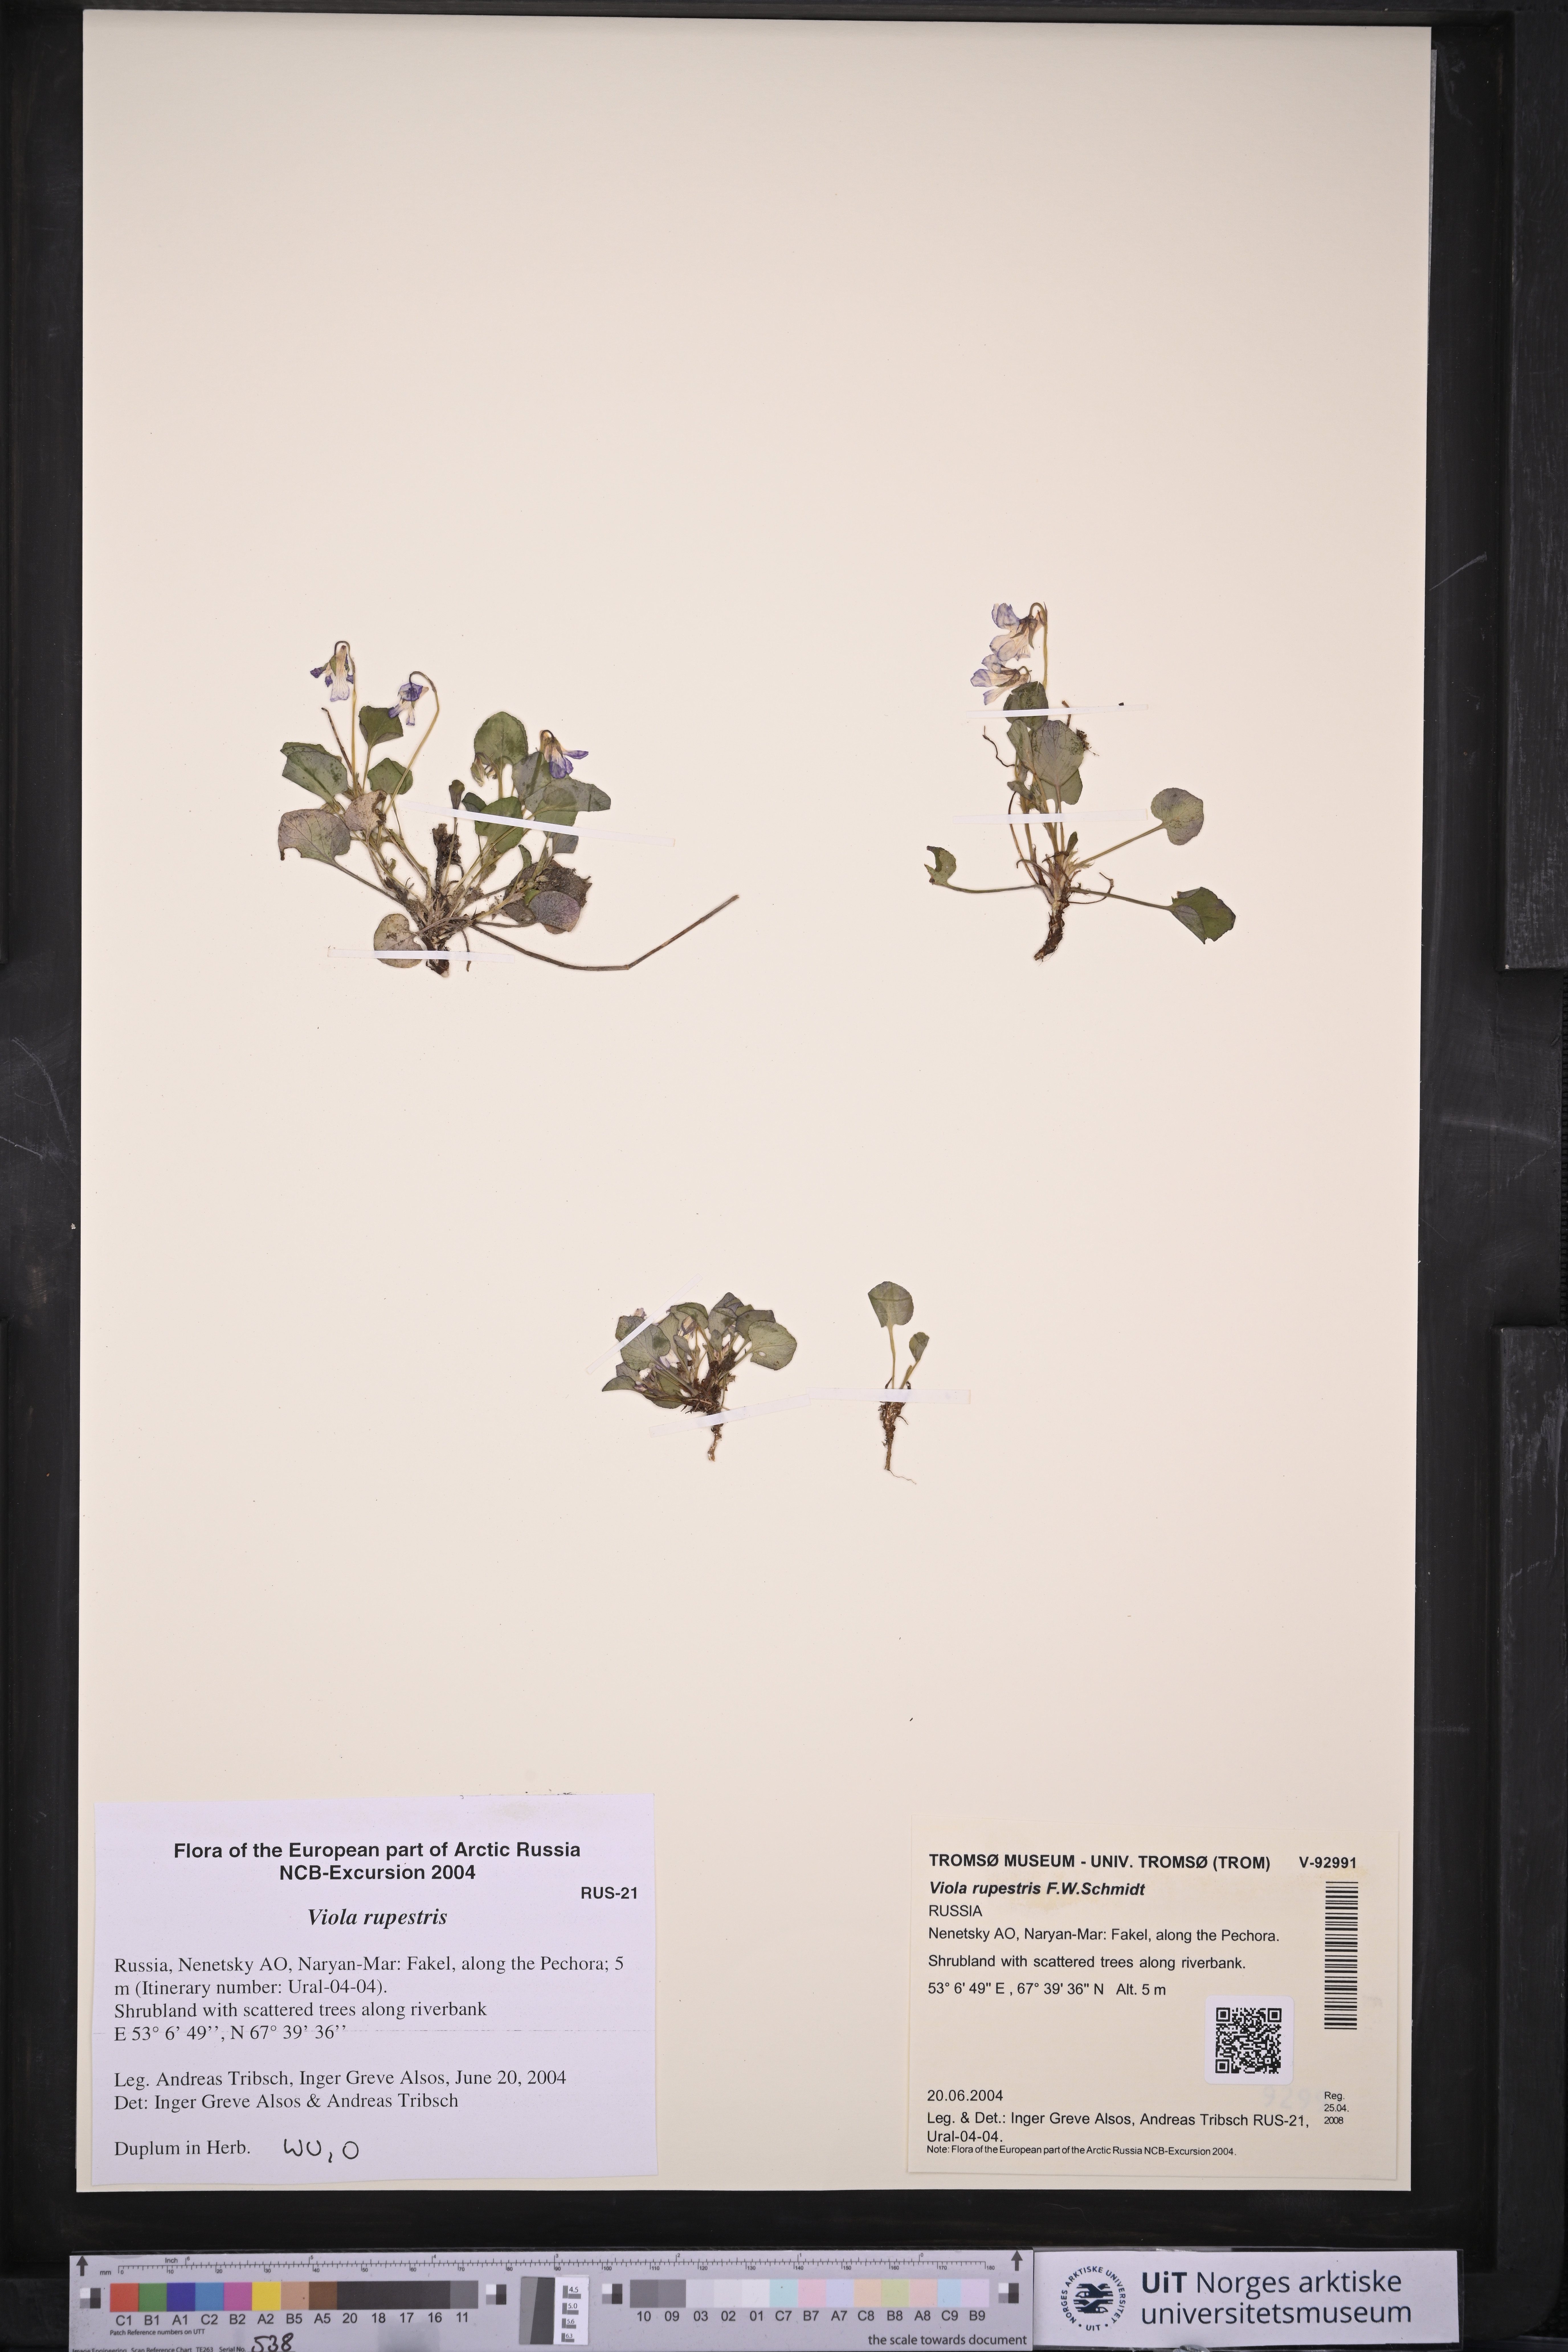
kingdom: Plantae
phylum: Tracheophyta
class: Magnoliopsida
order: Malpighiales
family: Violaceae
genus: Viola
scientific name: Viola rupestris
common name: Teesdale violet
